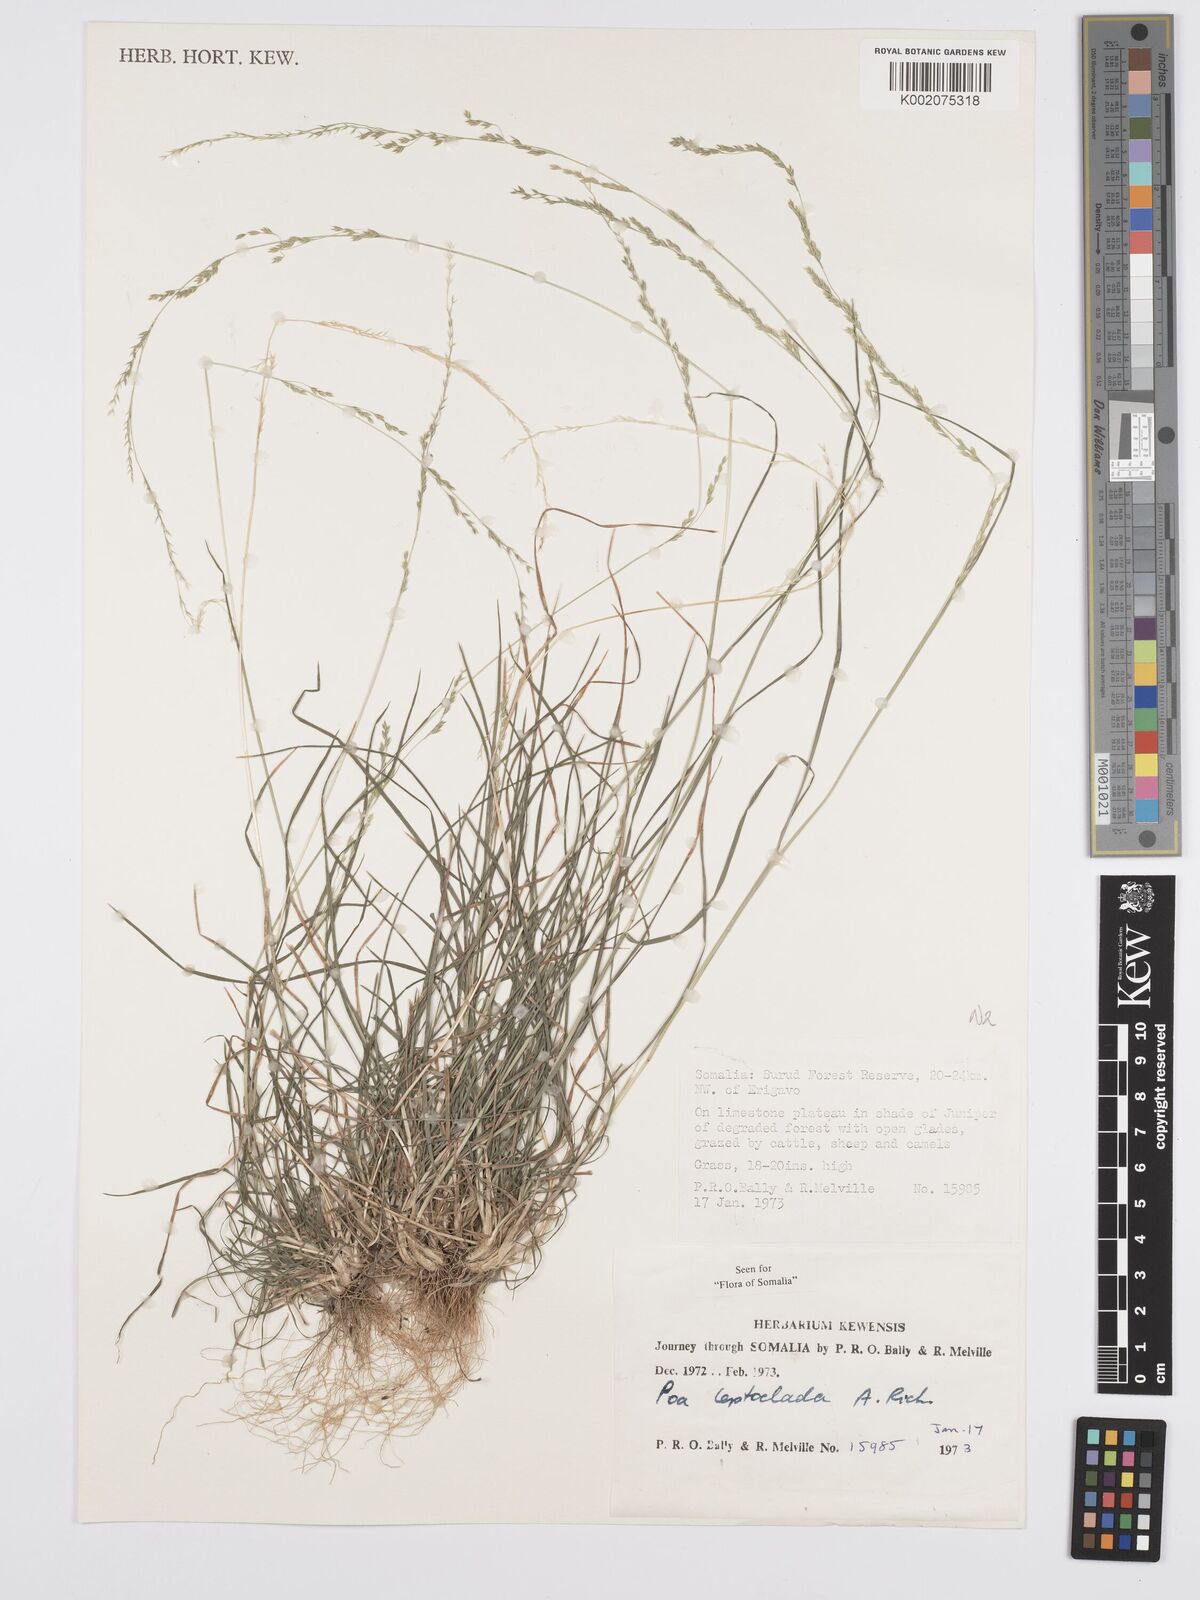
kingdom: Plantae
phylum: Tracheophyta
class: Liliopsida
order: Poales
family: Poaceae
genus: Poa
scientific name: Poa leptoclada
